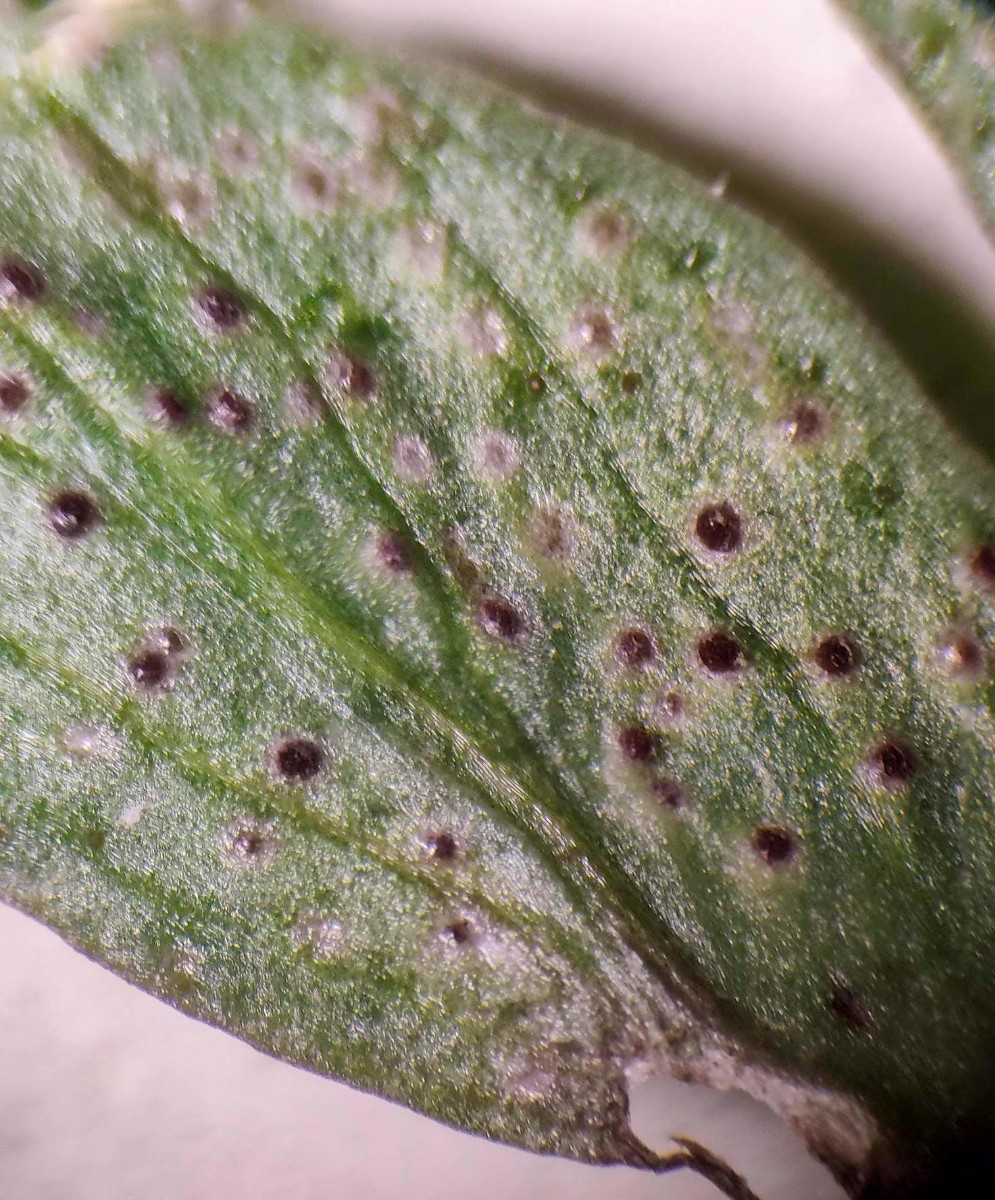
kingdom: Fungi
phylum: Basidiomycota
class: Pucciniomycetes
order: Pucciniales
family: Tranzscheliaceae
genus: Tranzschelia
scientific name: Tranzschelia anemones
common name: anemone-knæksporerust
